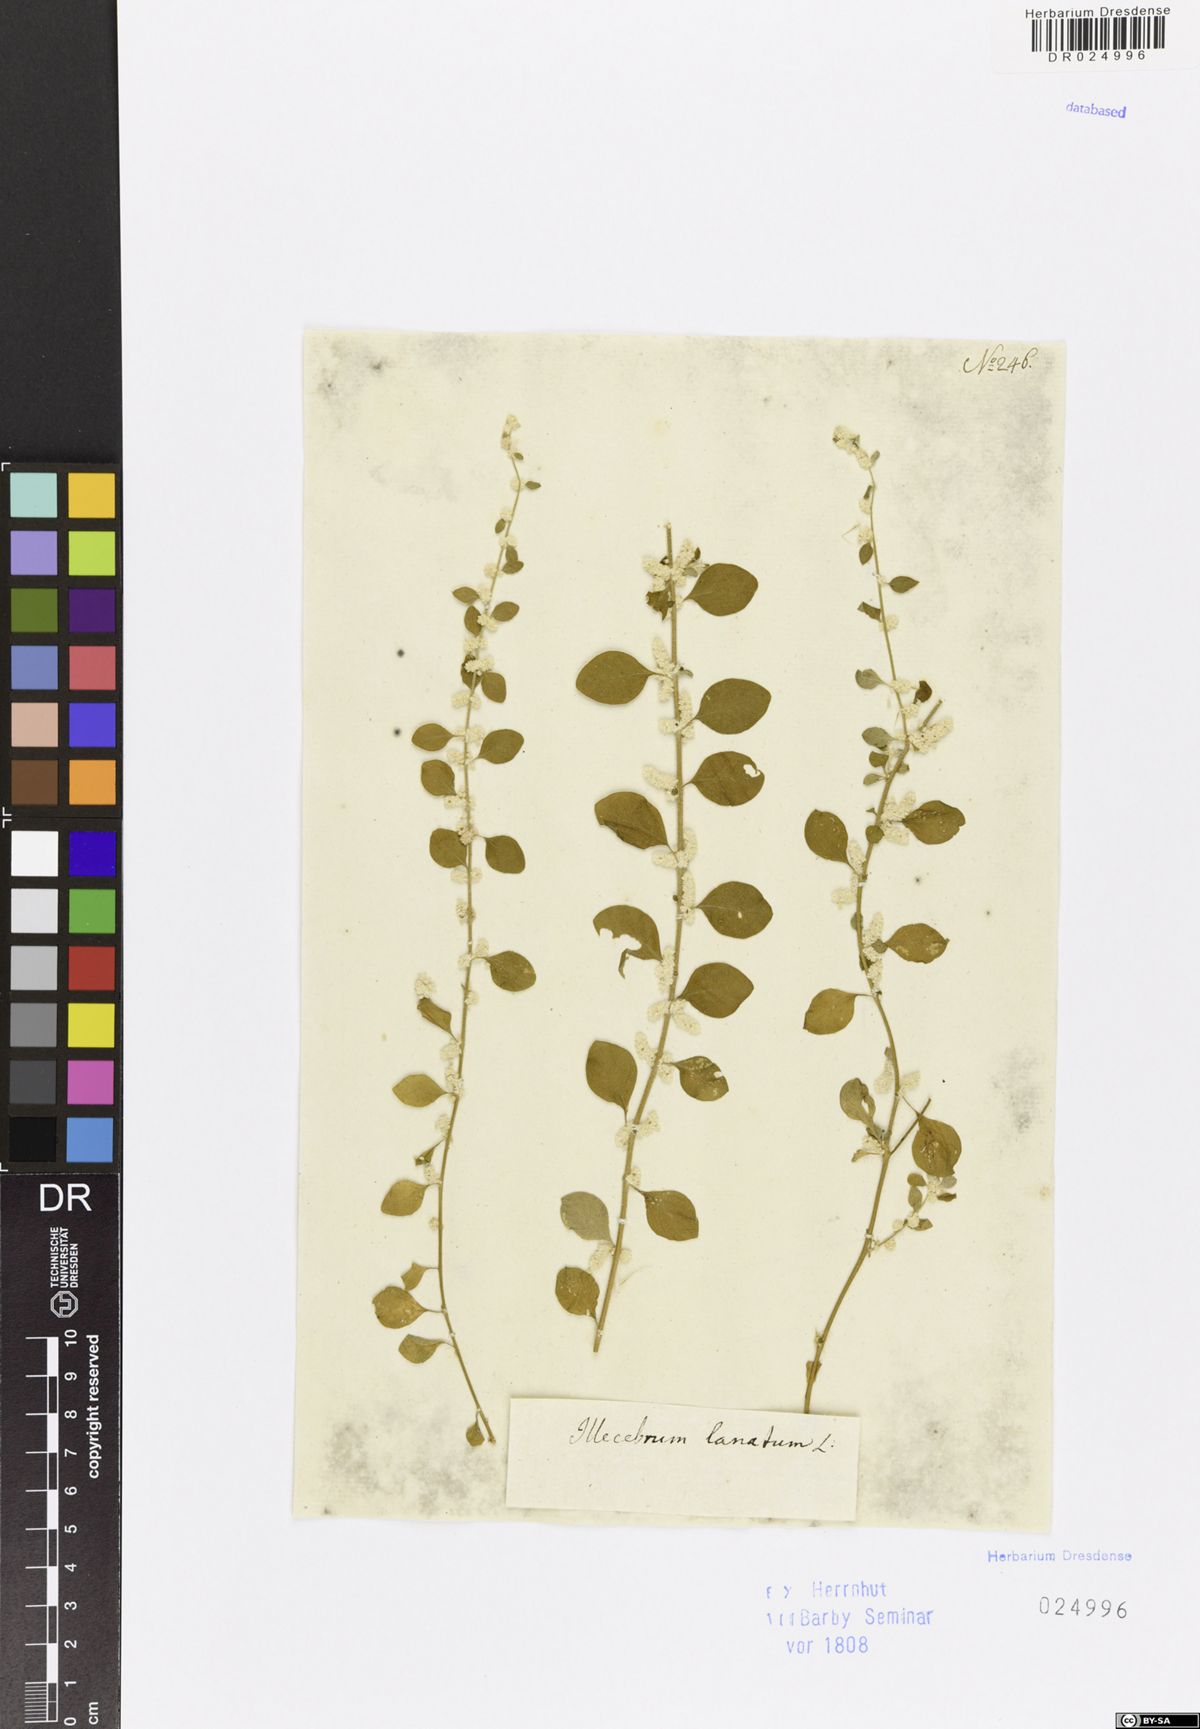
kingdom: Plantae
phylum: Tracheophyta
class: Magnoliopsida
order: Caryophyllales
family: Amaranthaceae
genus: Ouret
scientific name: Ouret lanata
